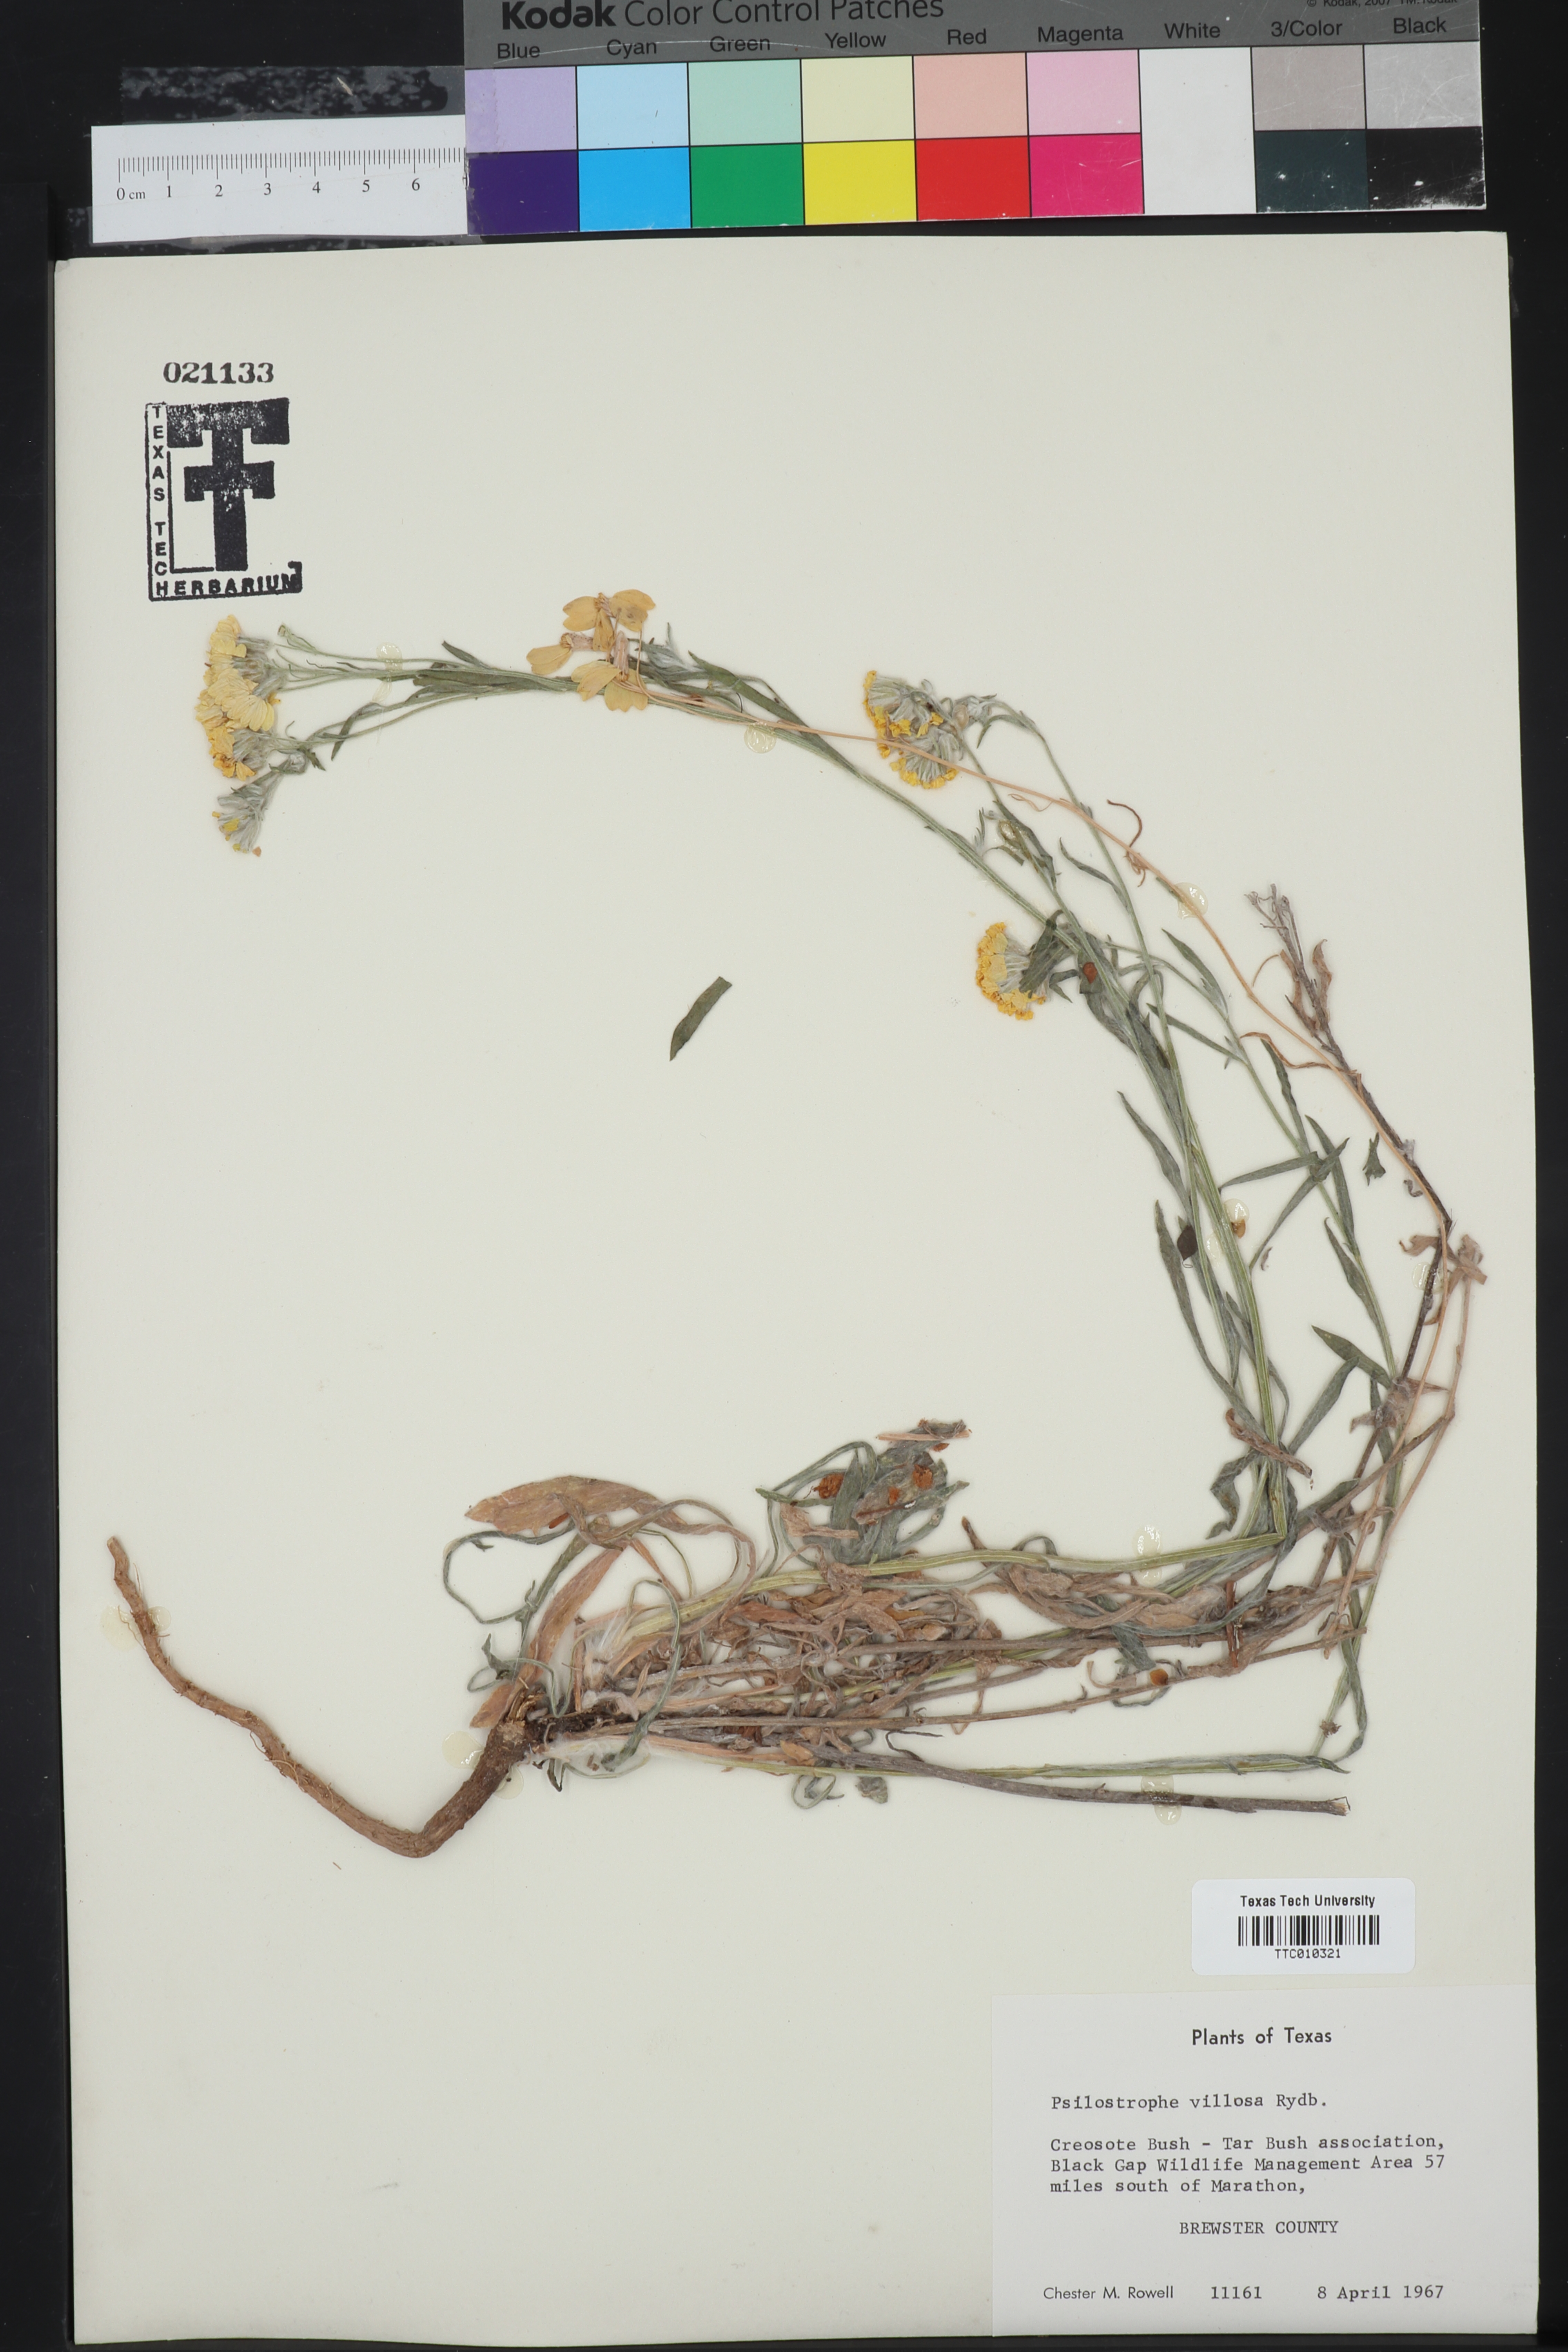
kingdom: Plantae
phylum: Tracheophyta
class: Magnoliopsida
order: Asterales
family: Asteraceae
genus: Psilostrophe
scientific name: Psilostrophe villosa
